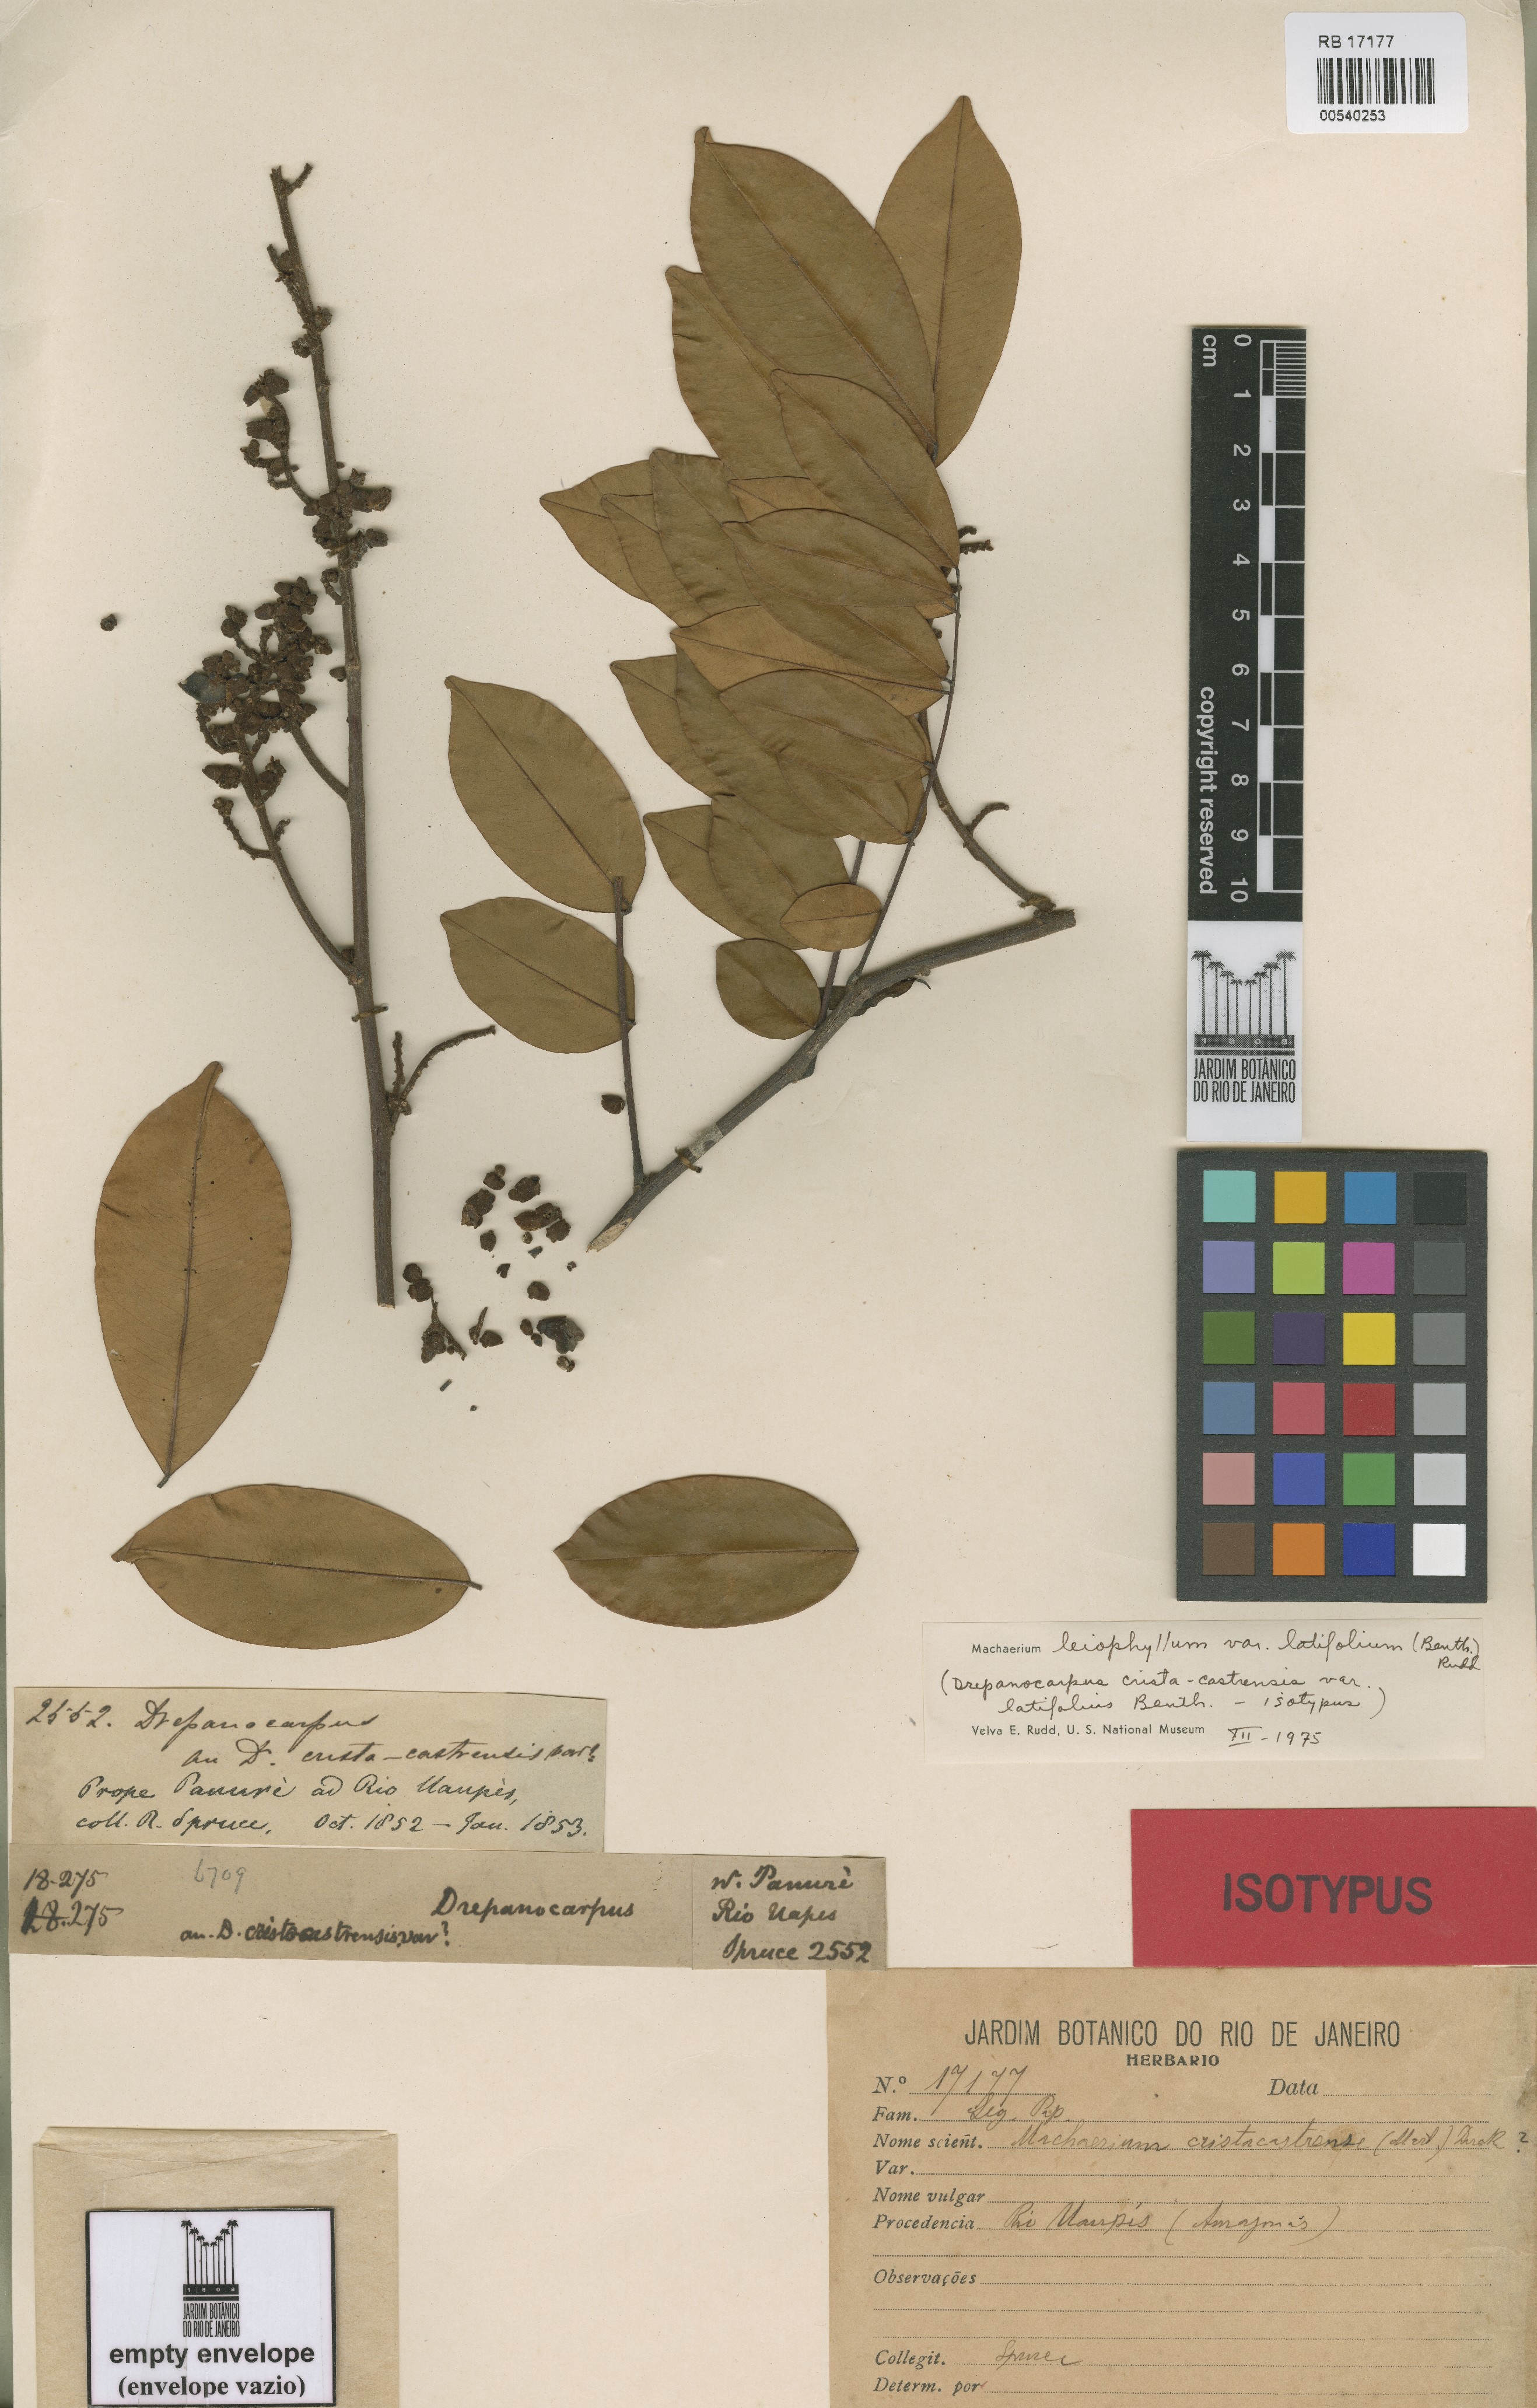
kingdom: Plantae
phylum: Tracheophyta
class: Magnoliopsida
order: Fabales
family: Fabaceae
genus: Machaerium
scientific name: Machaerium leiophyllum
